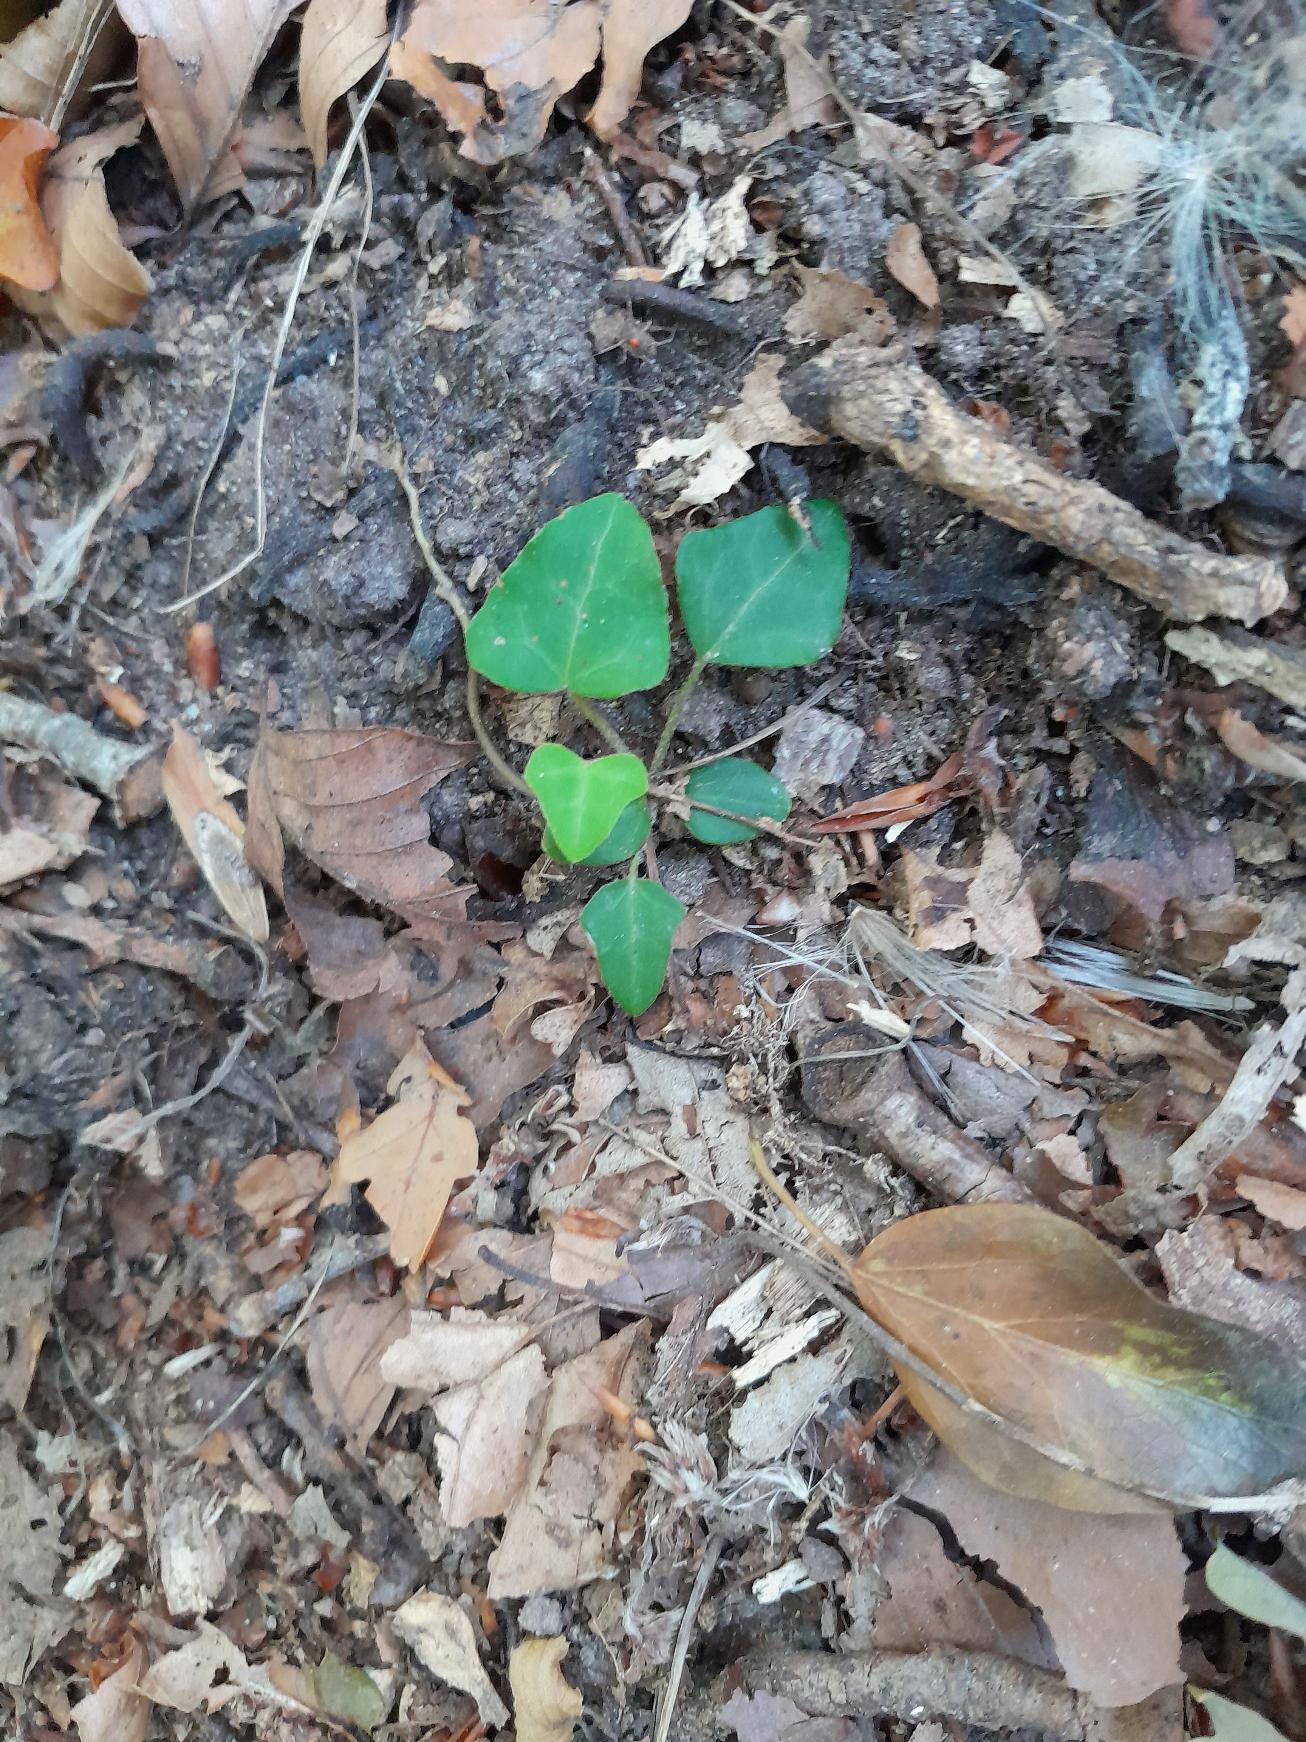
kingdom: Plantae
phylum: Tracheophyta
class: Magnoliopsida
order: Apiales
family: Araliaceae
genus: Hedera
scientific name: Hedera helix
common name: Vedbend
